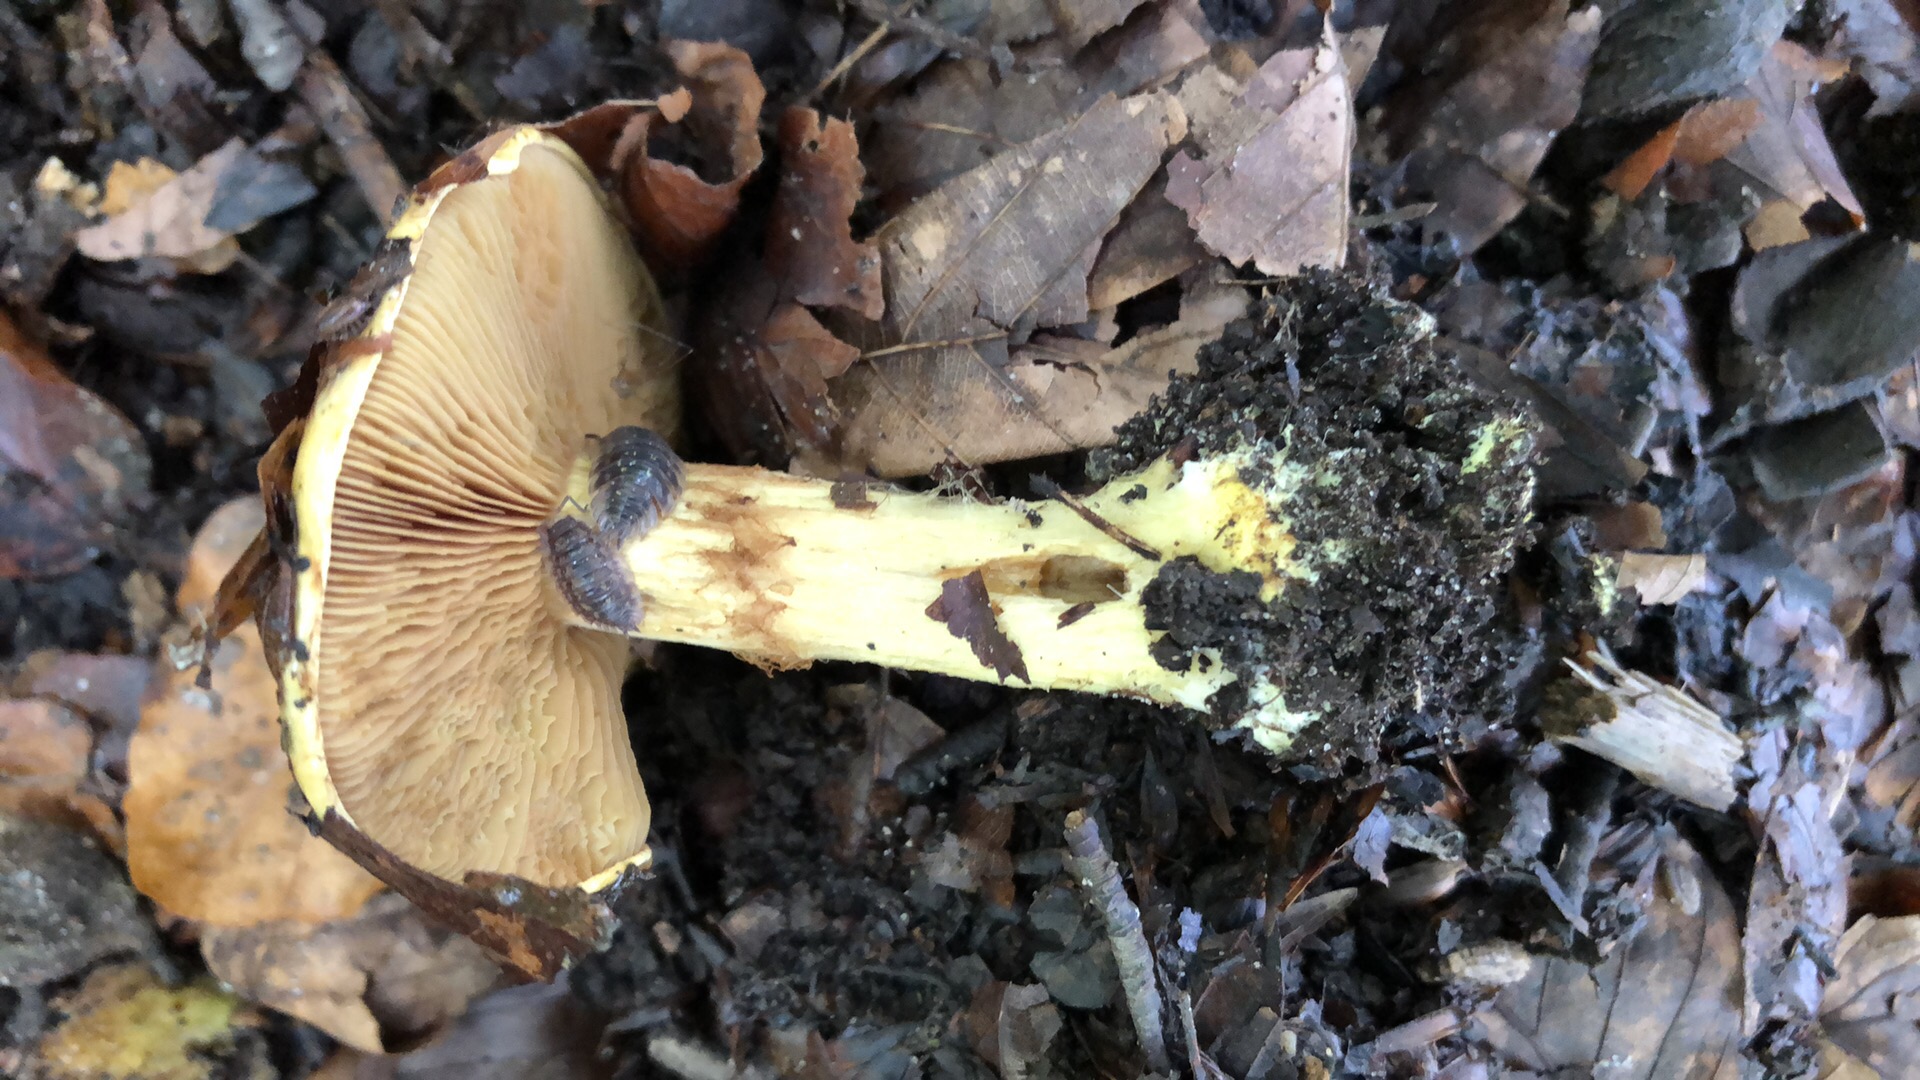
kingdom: Fungi
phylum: Basidiomycota
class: Agaricomycetes
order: Agaricales
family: Cortinariaceae
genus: Cortinarius
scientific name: Cortinarius
